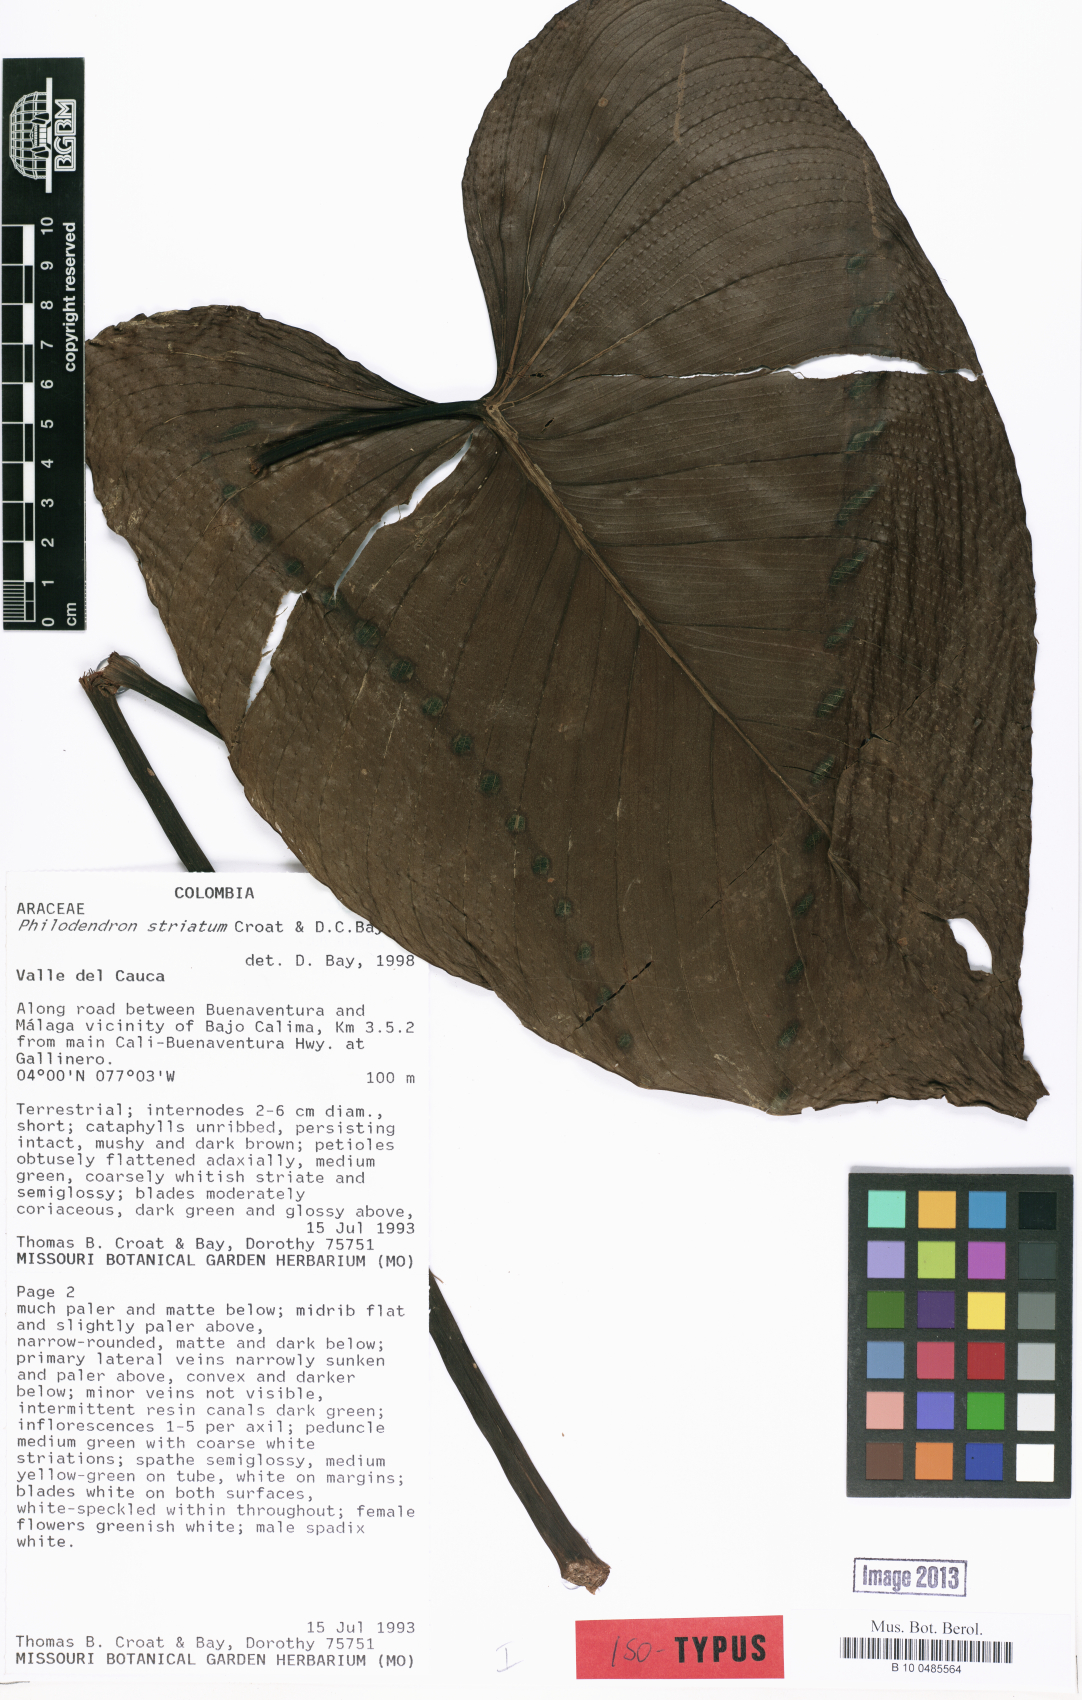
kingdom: Plantae
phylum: Tracheophyta
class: Liliopsida
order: Alismatales
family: Araceae
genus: Philodendron
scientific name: Philodendron striatum
